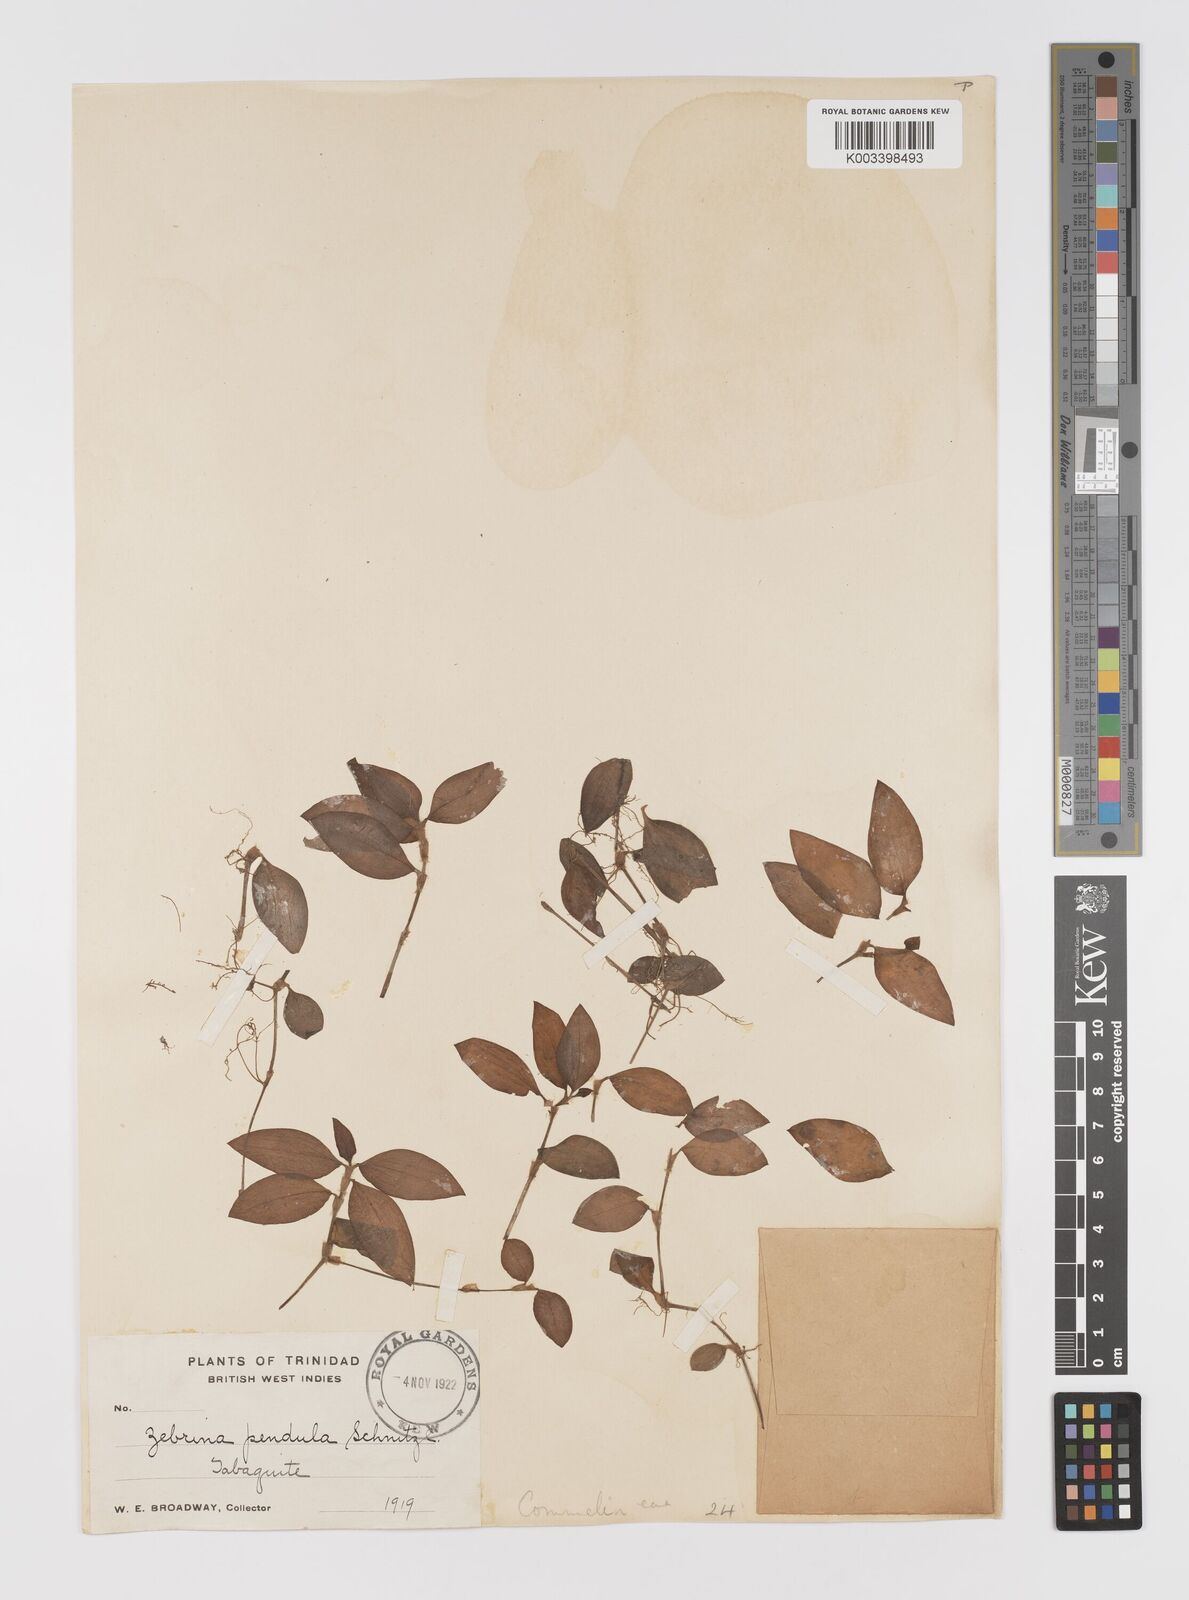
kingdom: Plantae
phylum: Tracheophyta
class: Liliopsida
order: Commelinales
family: Commelinaceae
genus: Tradescantia
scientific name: Tradescantia zebrina
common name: Inchplant
